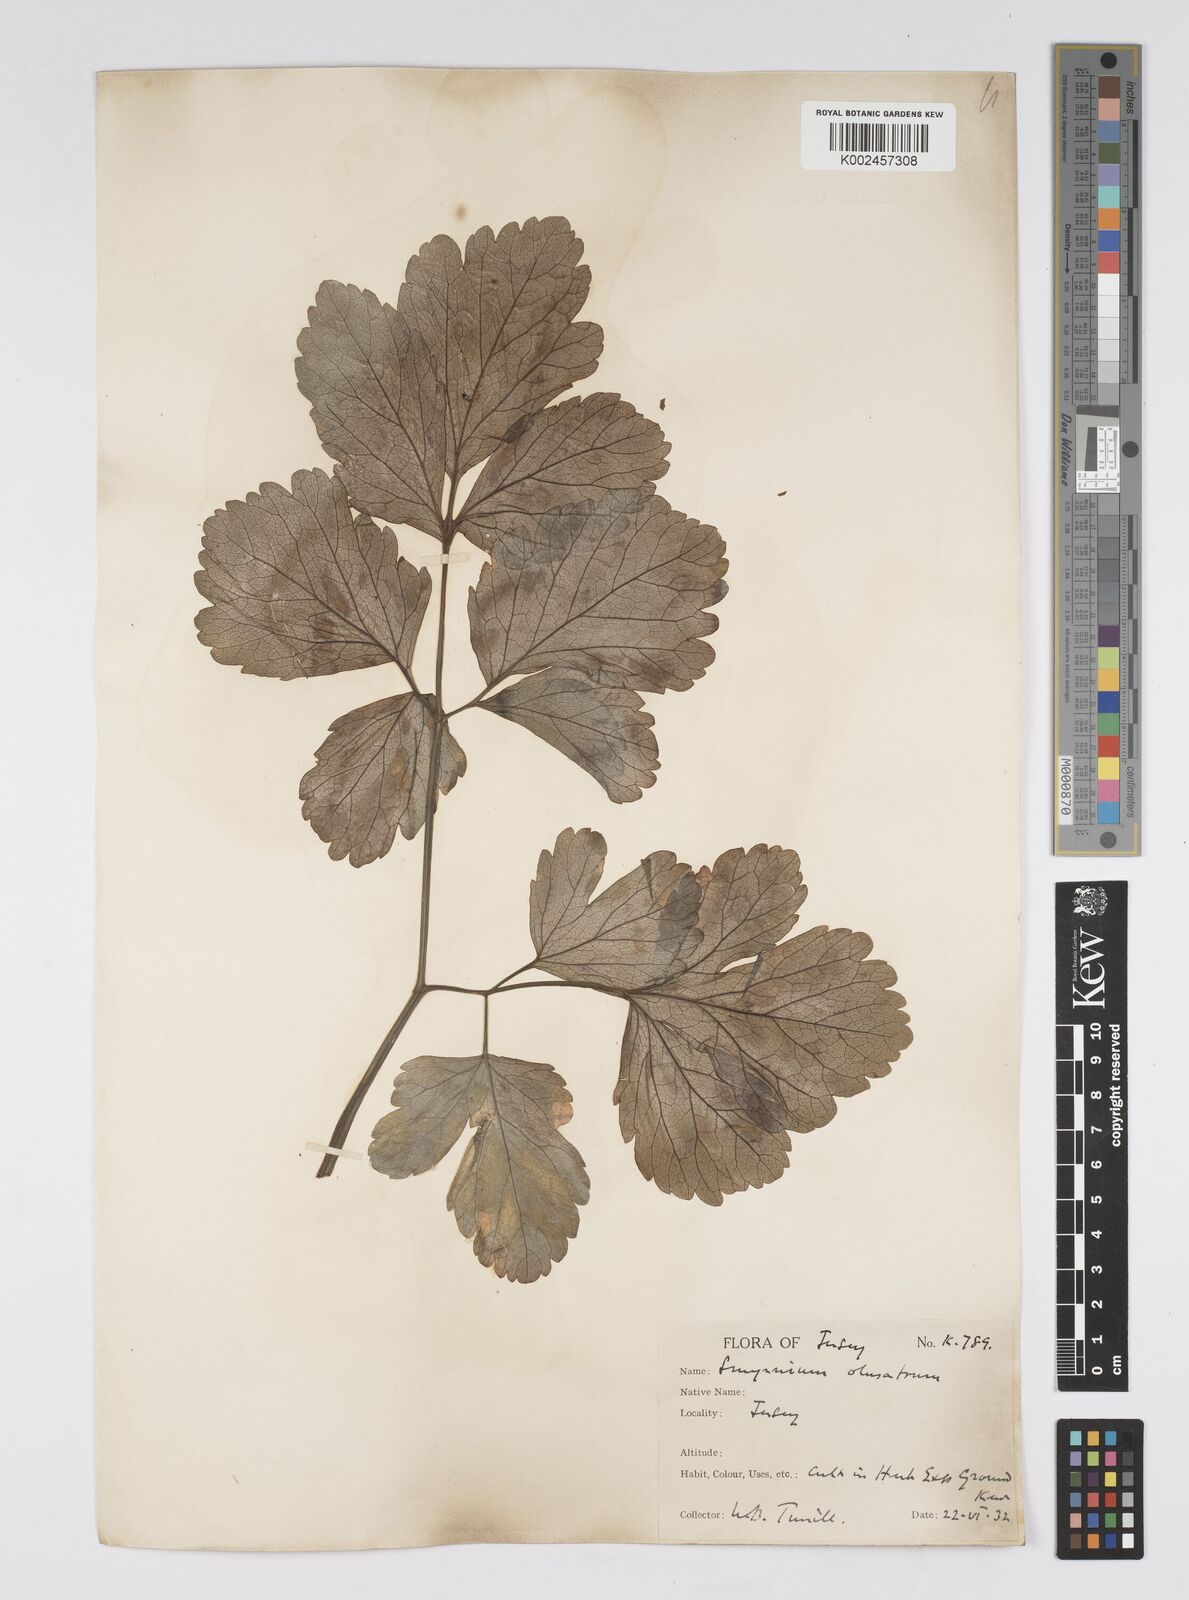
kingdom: Plantae
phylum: Tracheophyta
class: Magnoliopsida
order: Apiales
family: Apiaceae
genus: Smyrnium
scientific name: Smyrnium olusatrum
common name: Alexanders
